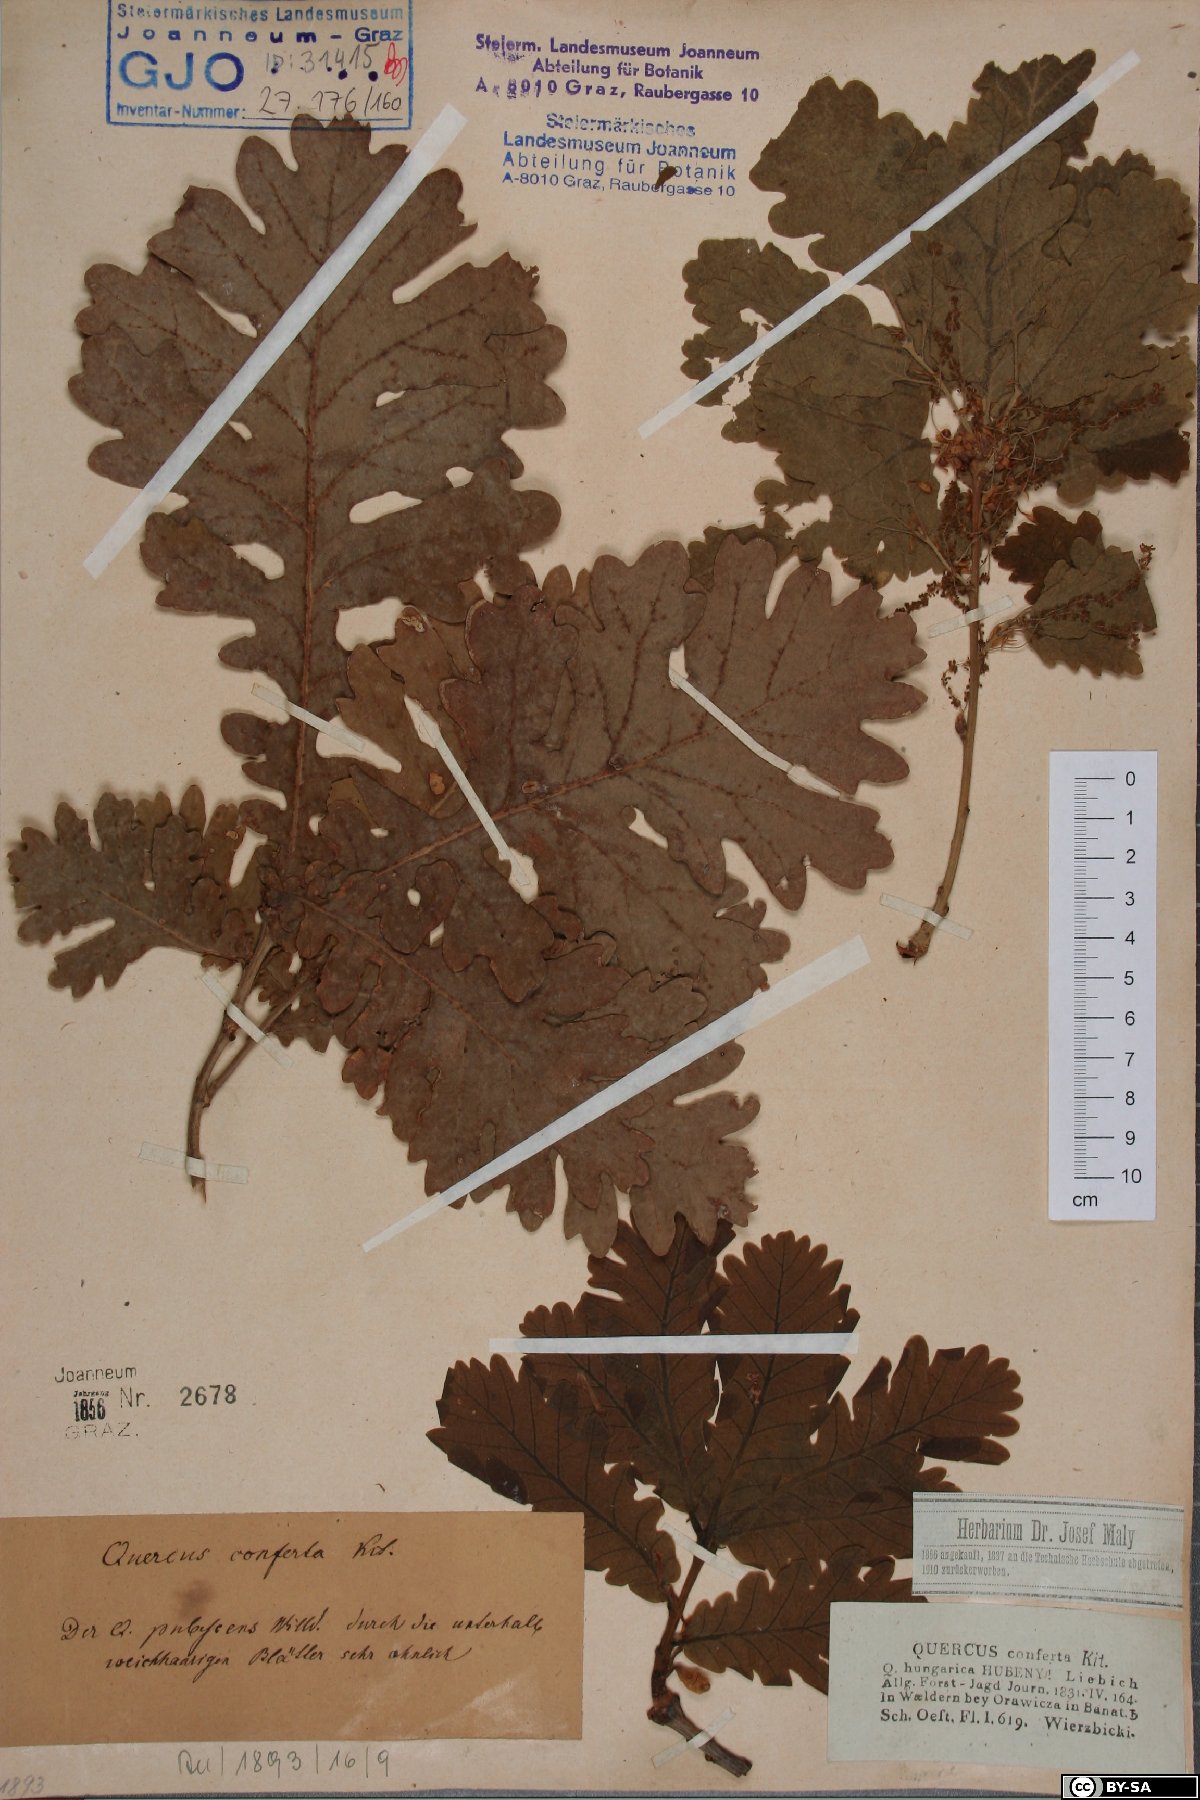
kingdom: Plantae
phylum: Tracheophyta
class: Magnoliopsida
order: Fagales
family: Fagaceae
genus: Quercus
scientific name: Quercus conferta
